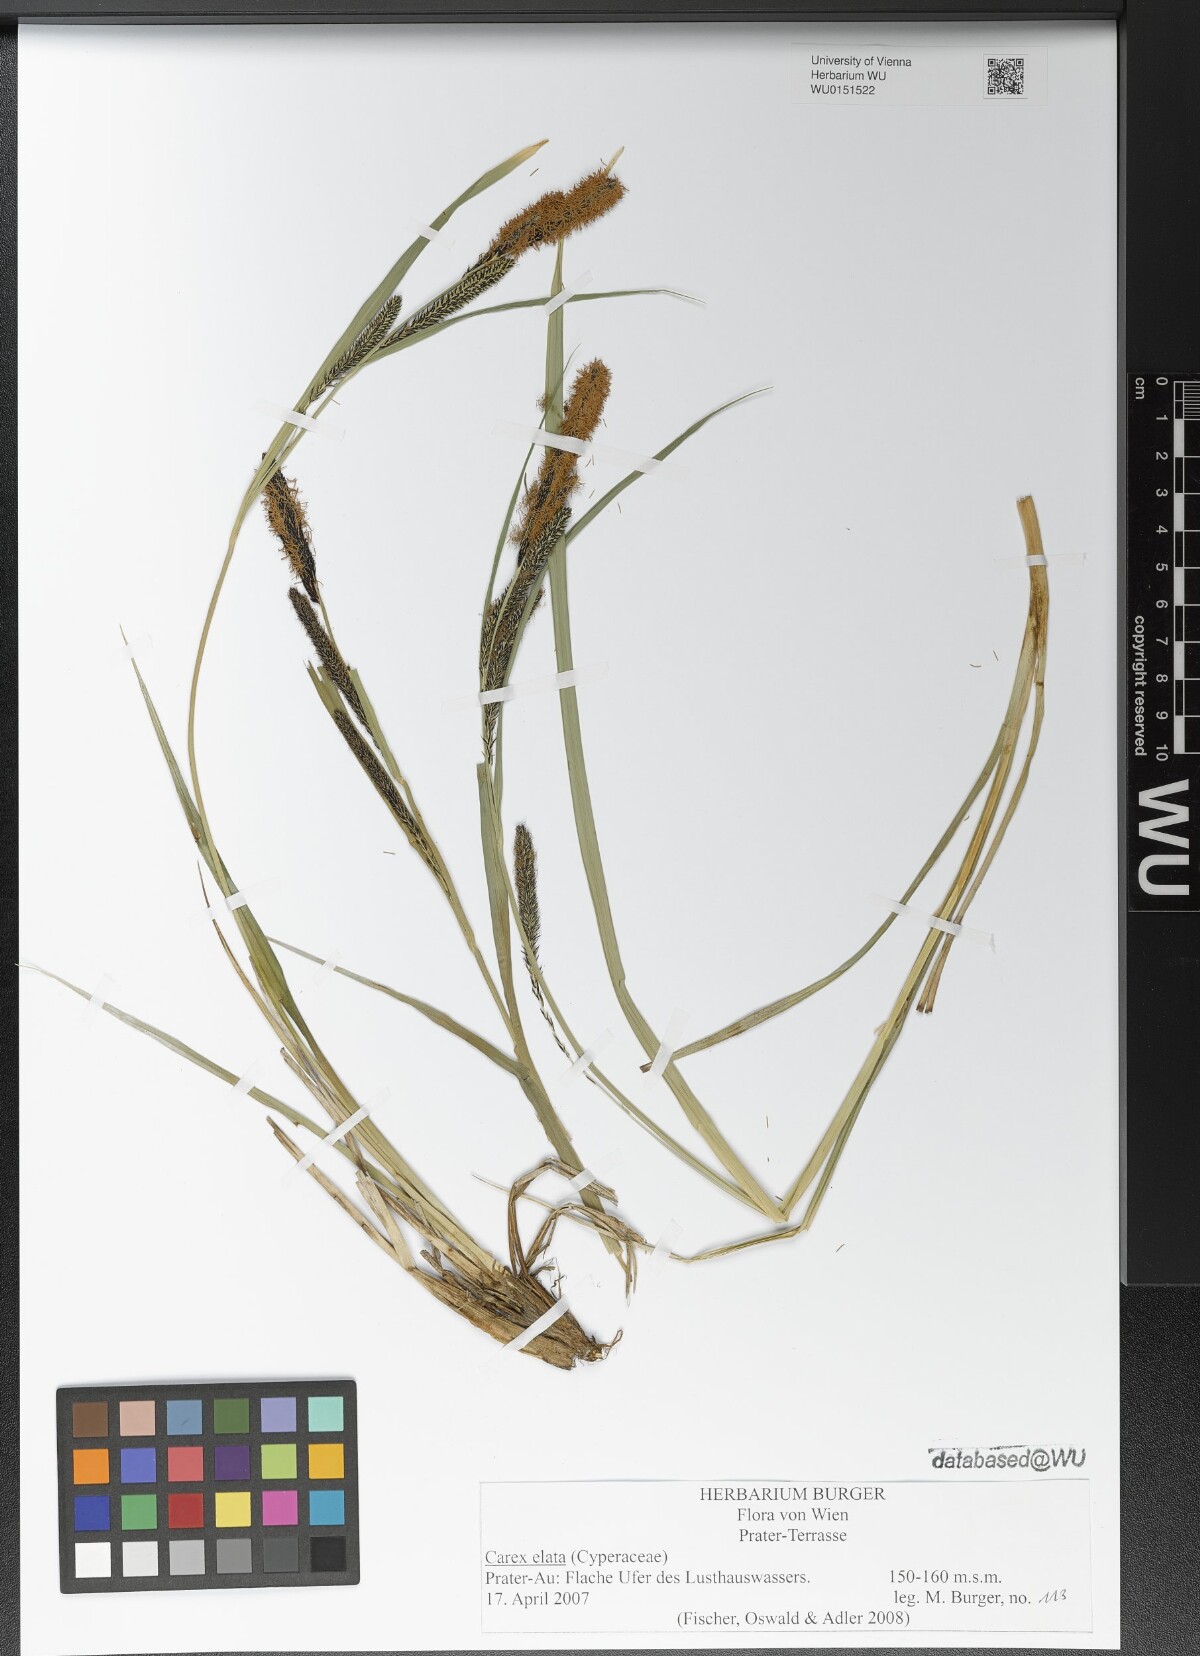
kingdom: Plantae
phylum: Tracheophyta
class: Liliopsida
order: Poales
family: Cyperaceae
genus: Carex
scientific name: Carex elata
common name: Tufted sedge
